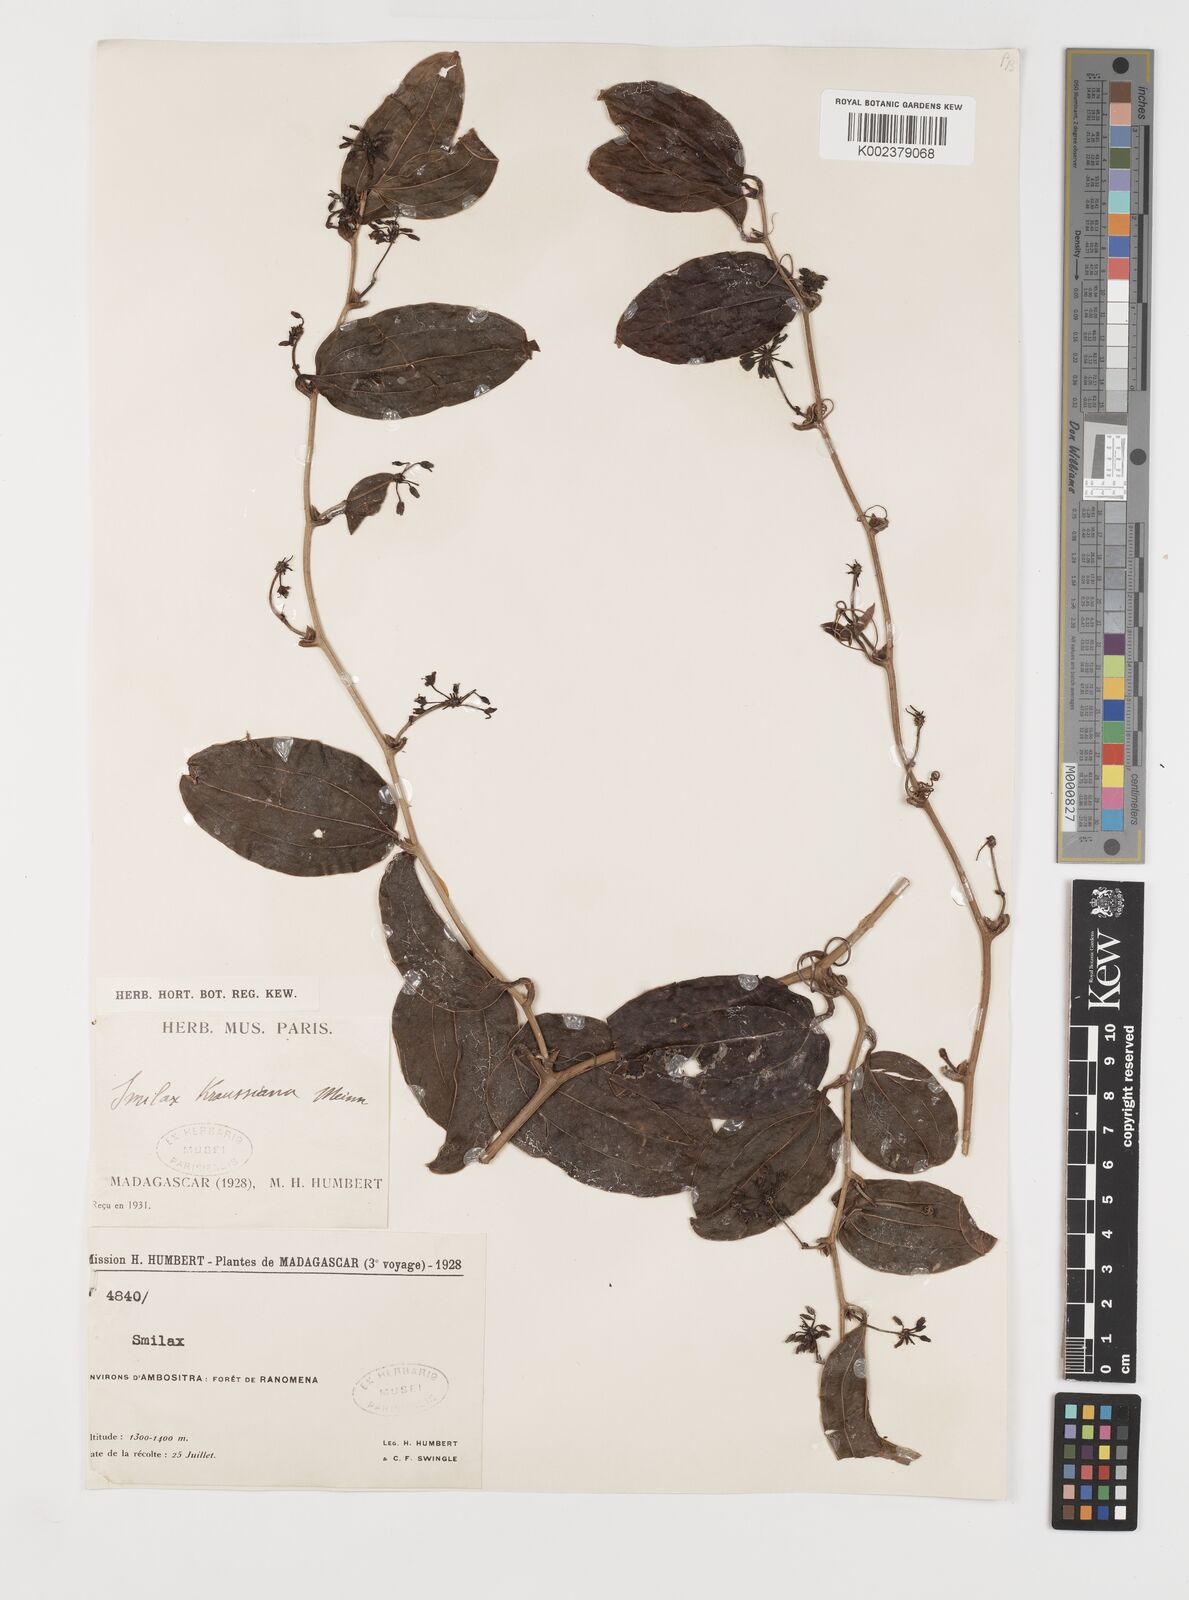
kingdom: Plantae
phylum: Tracheophyta
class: Liliopsida
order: Liliales
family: Smilacaceae
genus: Smilax
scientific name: Smilax anceps
